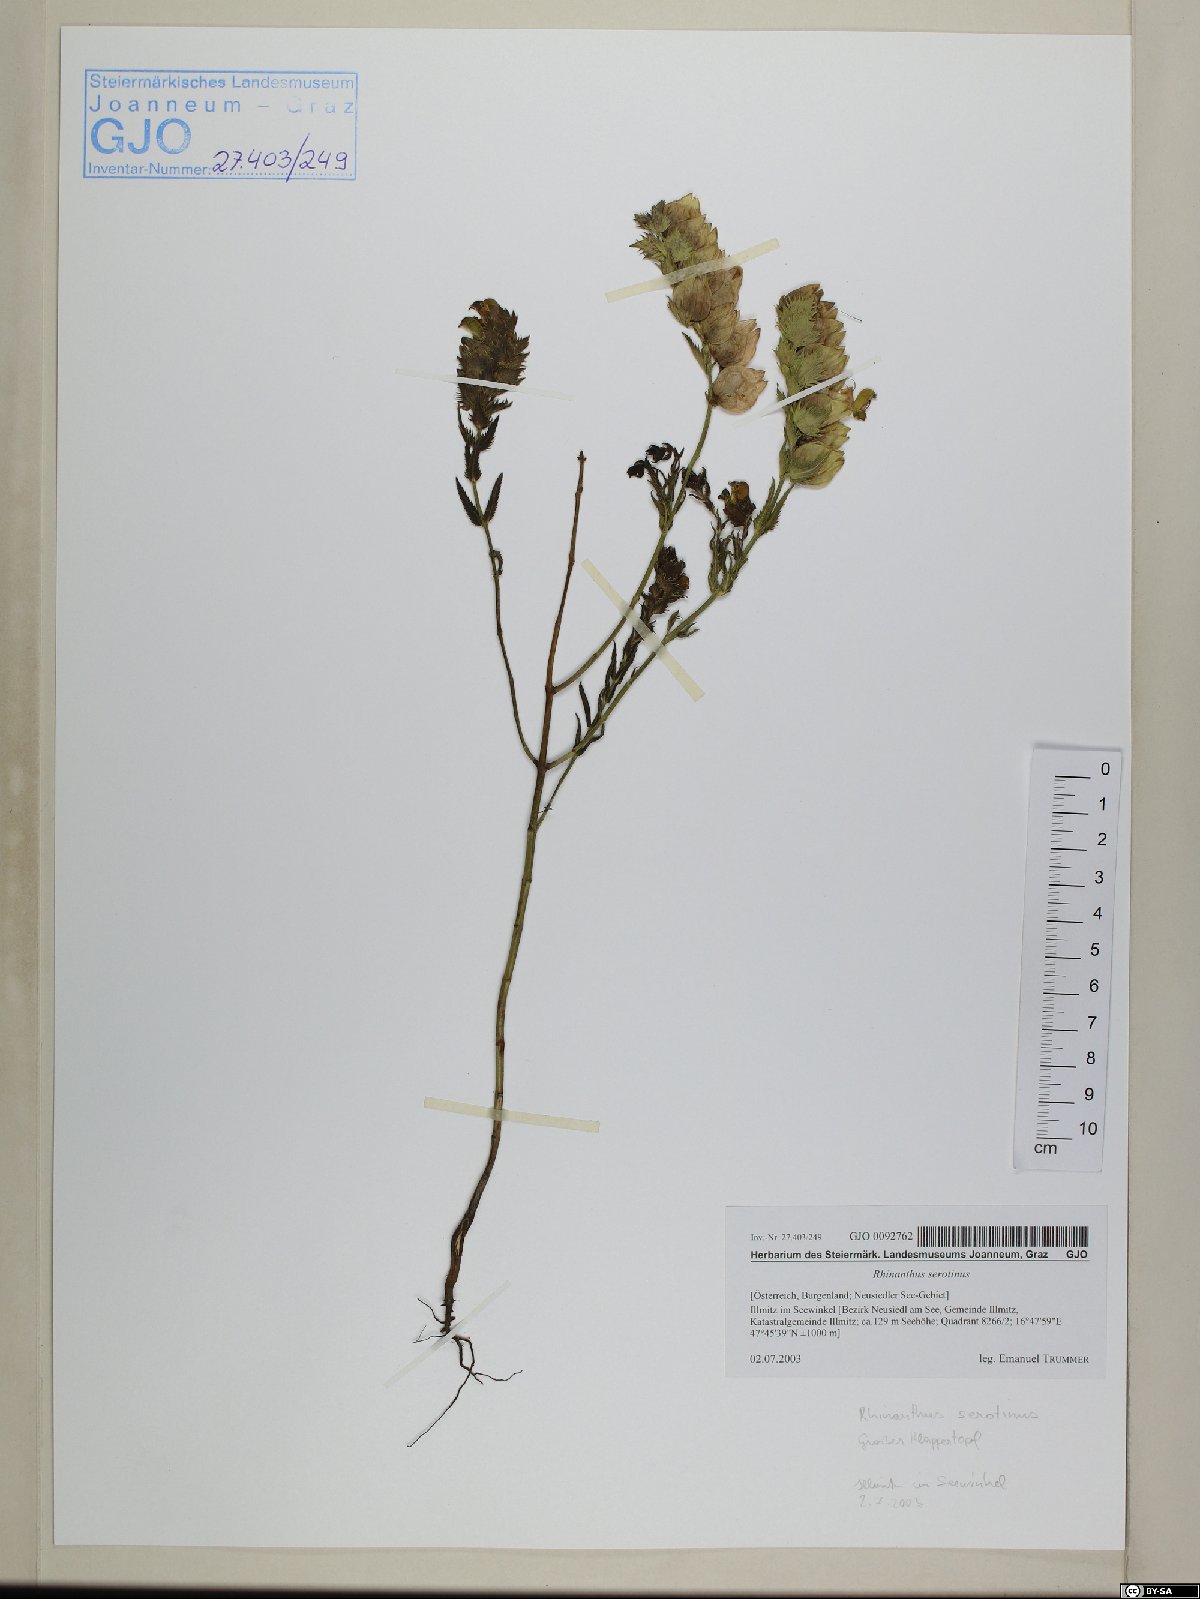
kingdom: Plantae
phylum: Tracheophyta
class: Magnoliopsida
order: Lamiales
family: Orobanchaceae
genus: Rhinanthus
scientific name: Rhinanthus serotinus
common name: Late-flowering yellow rattle
